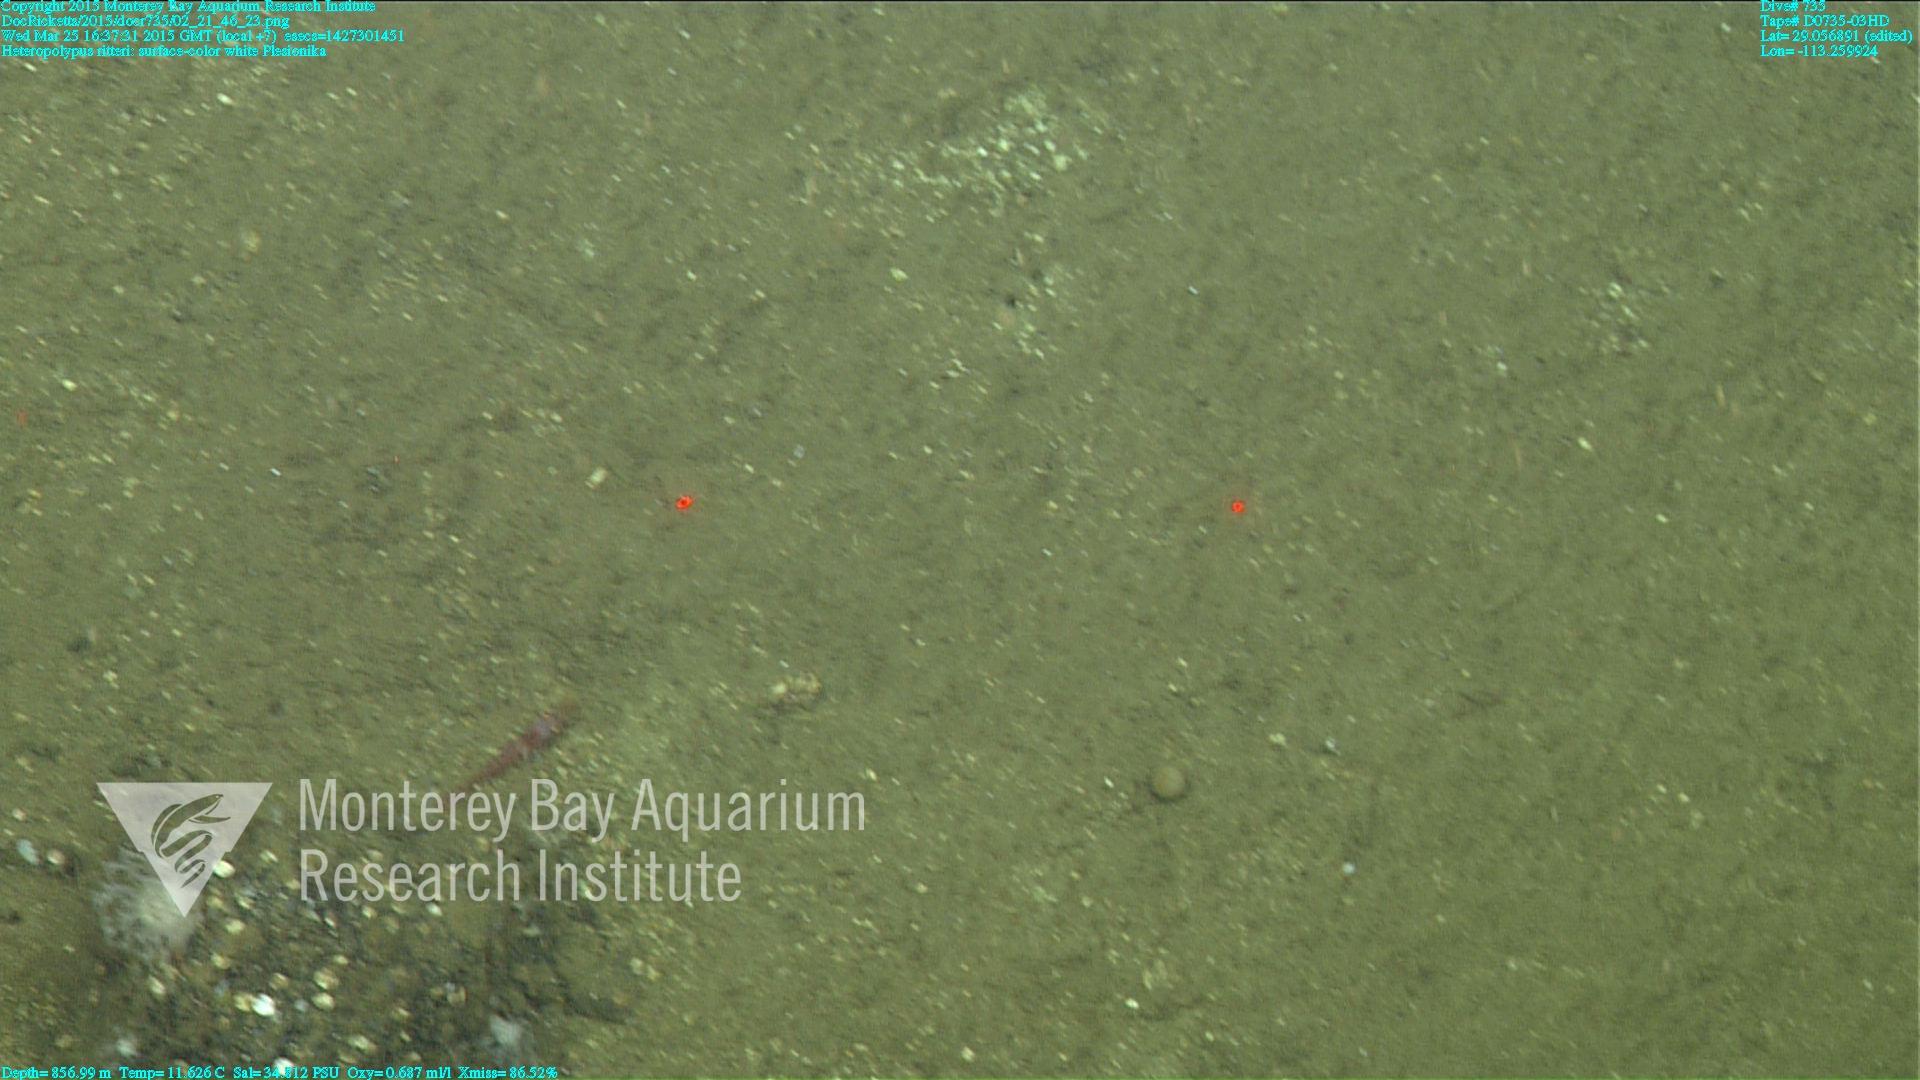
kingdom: Animalia
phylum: Cnidaria
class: Anthozoa
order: Scleralcyonacea
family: Coralliidae
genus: Heteropolypus
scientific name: Heteropolypus ritteri
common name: Ritter's soft coral
